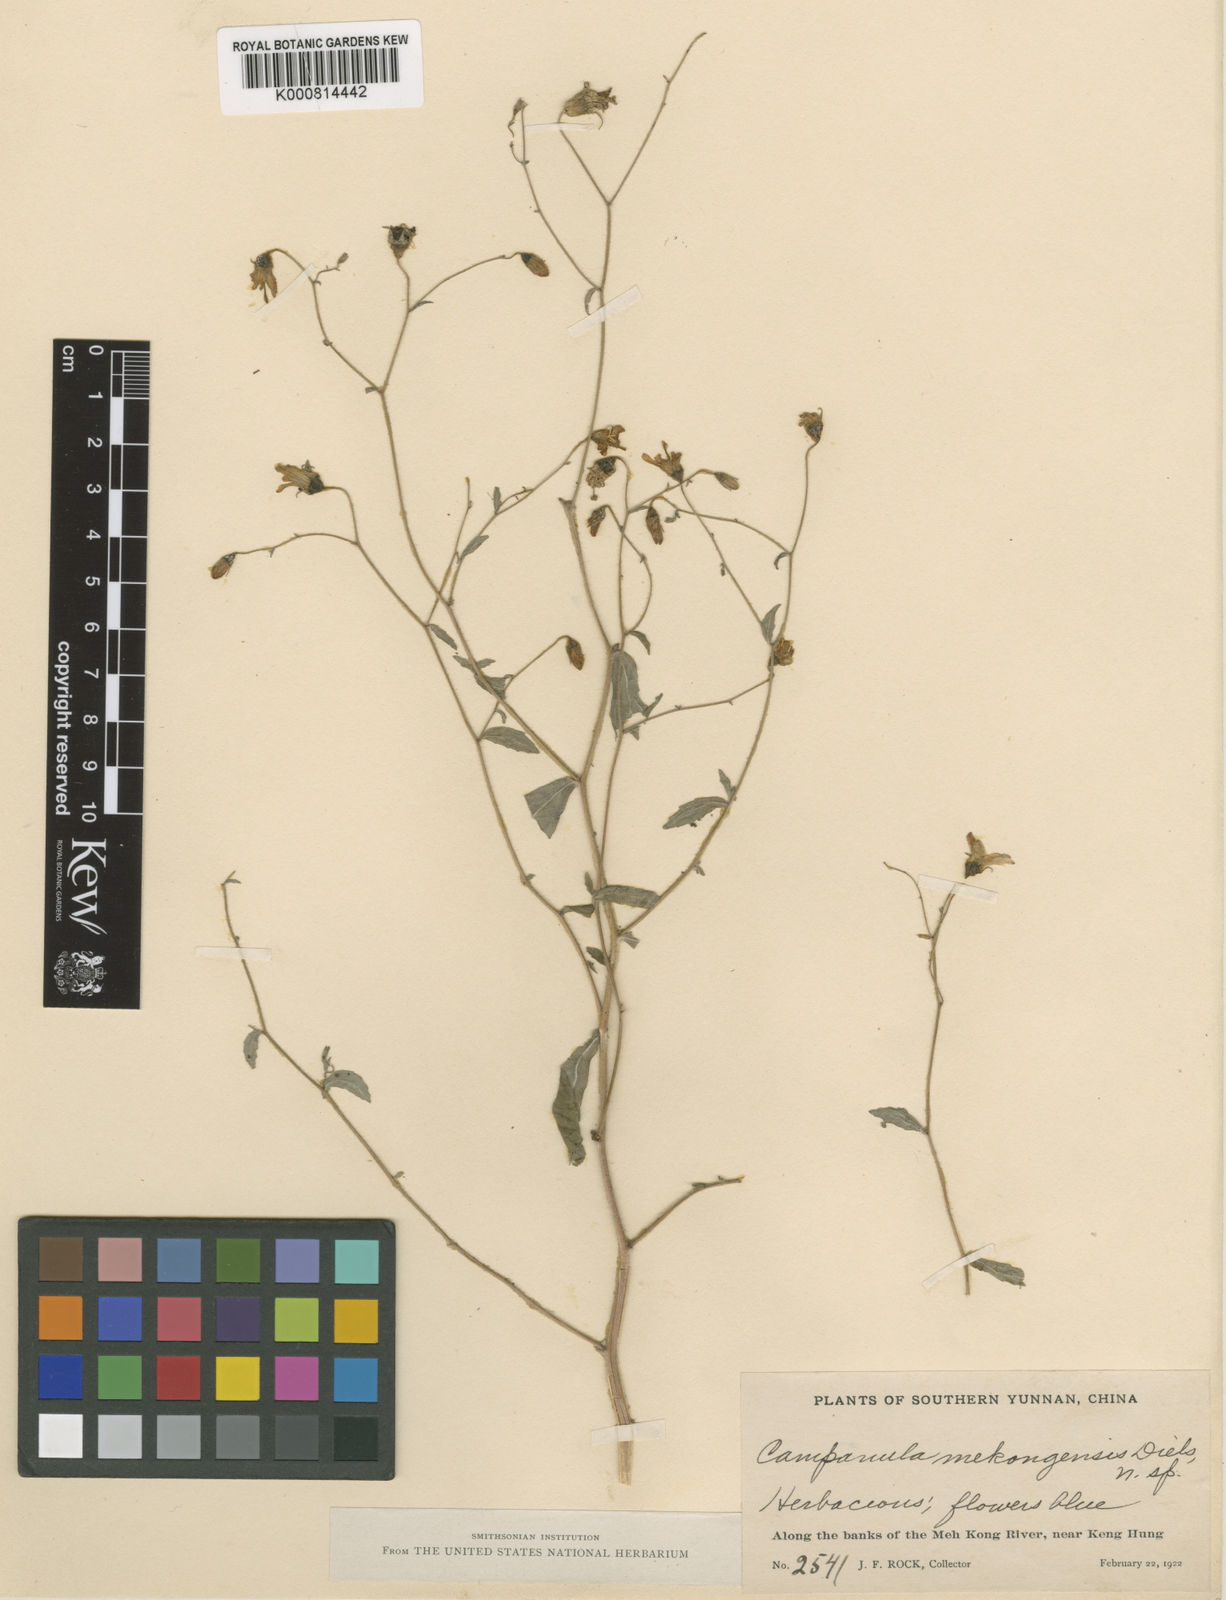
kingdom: Plantae
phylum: Tracheophyta
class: Magnoliopsida
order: Asterales
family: Campanulaceae
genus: Campanula
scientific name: Campanula mekongensis
